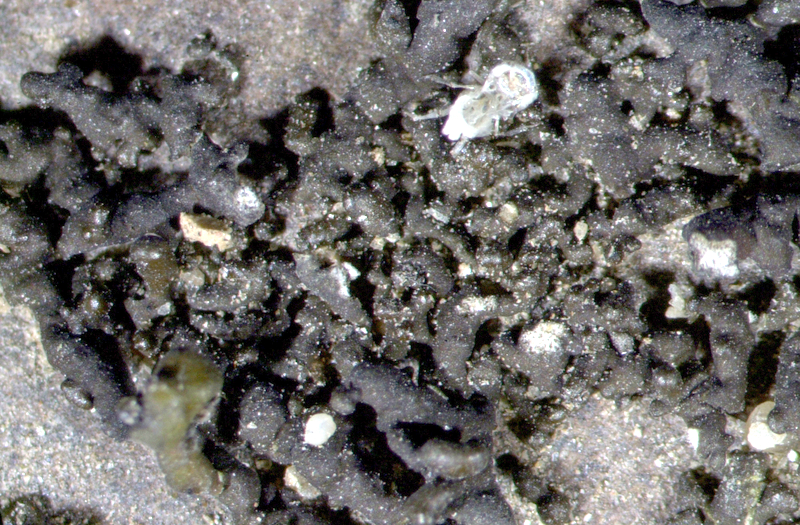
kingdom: Fungi
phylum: Ascomycota
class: Lecanoromycetes
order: Lecanorales
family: Ramalinaceae
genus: Ramalina
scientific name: Ramalina capensis
